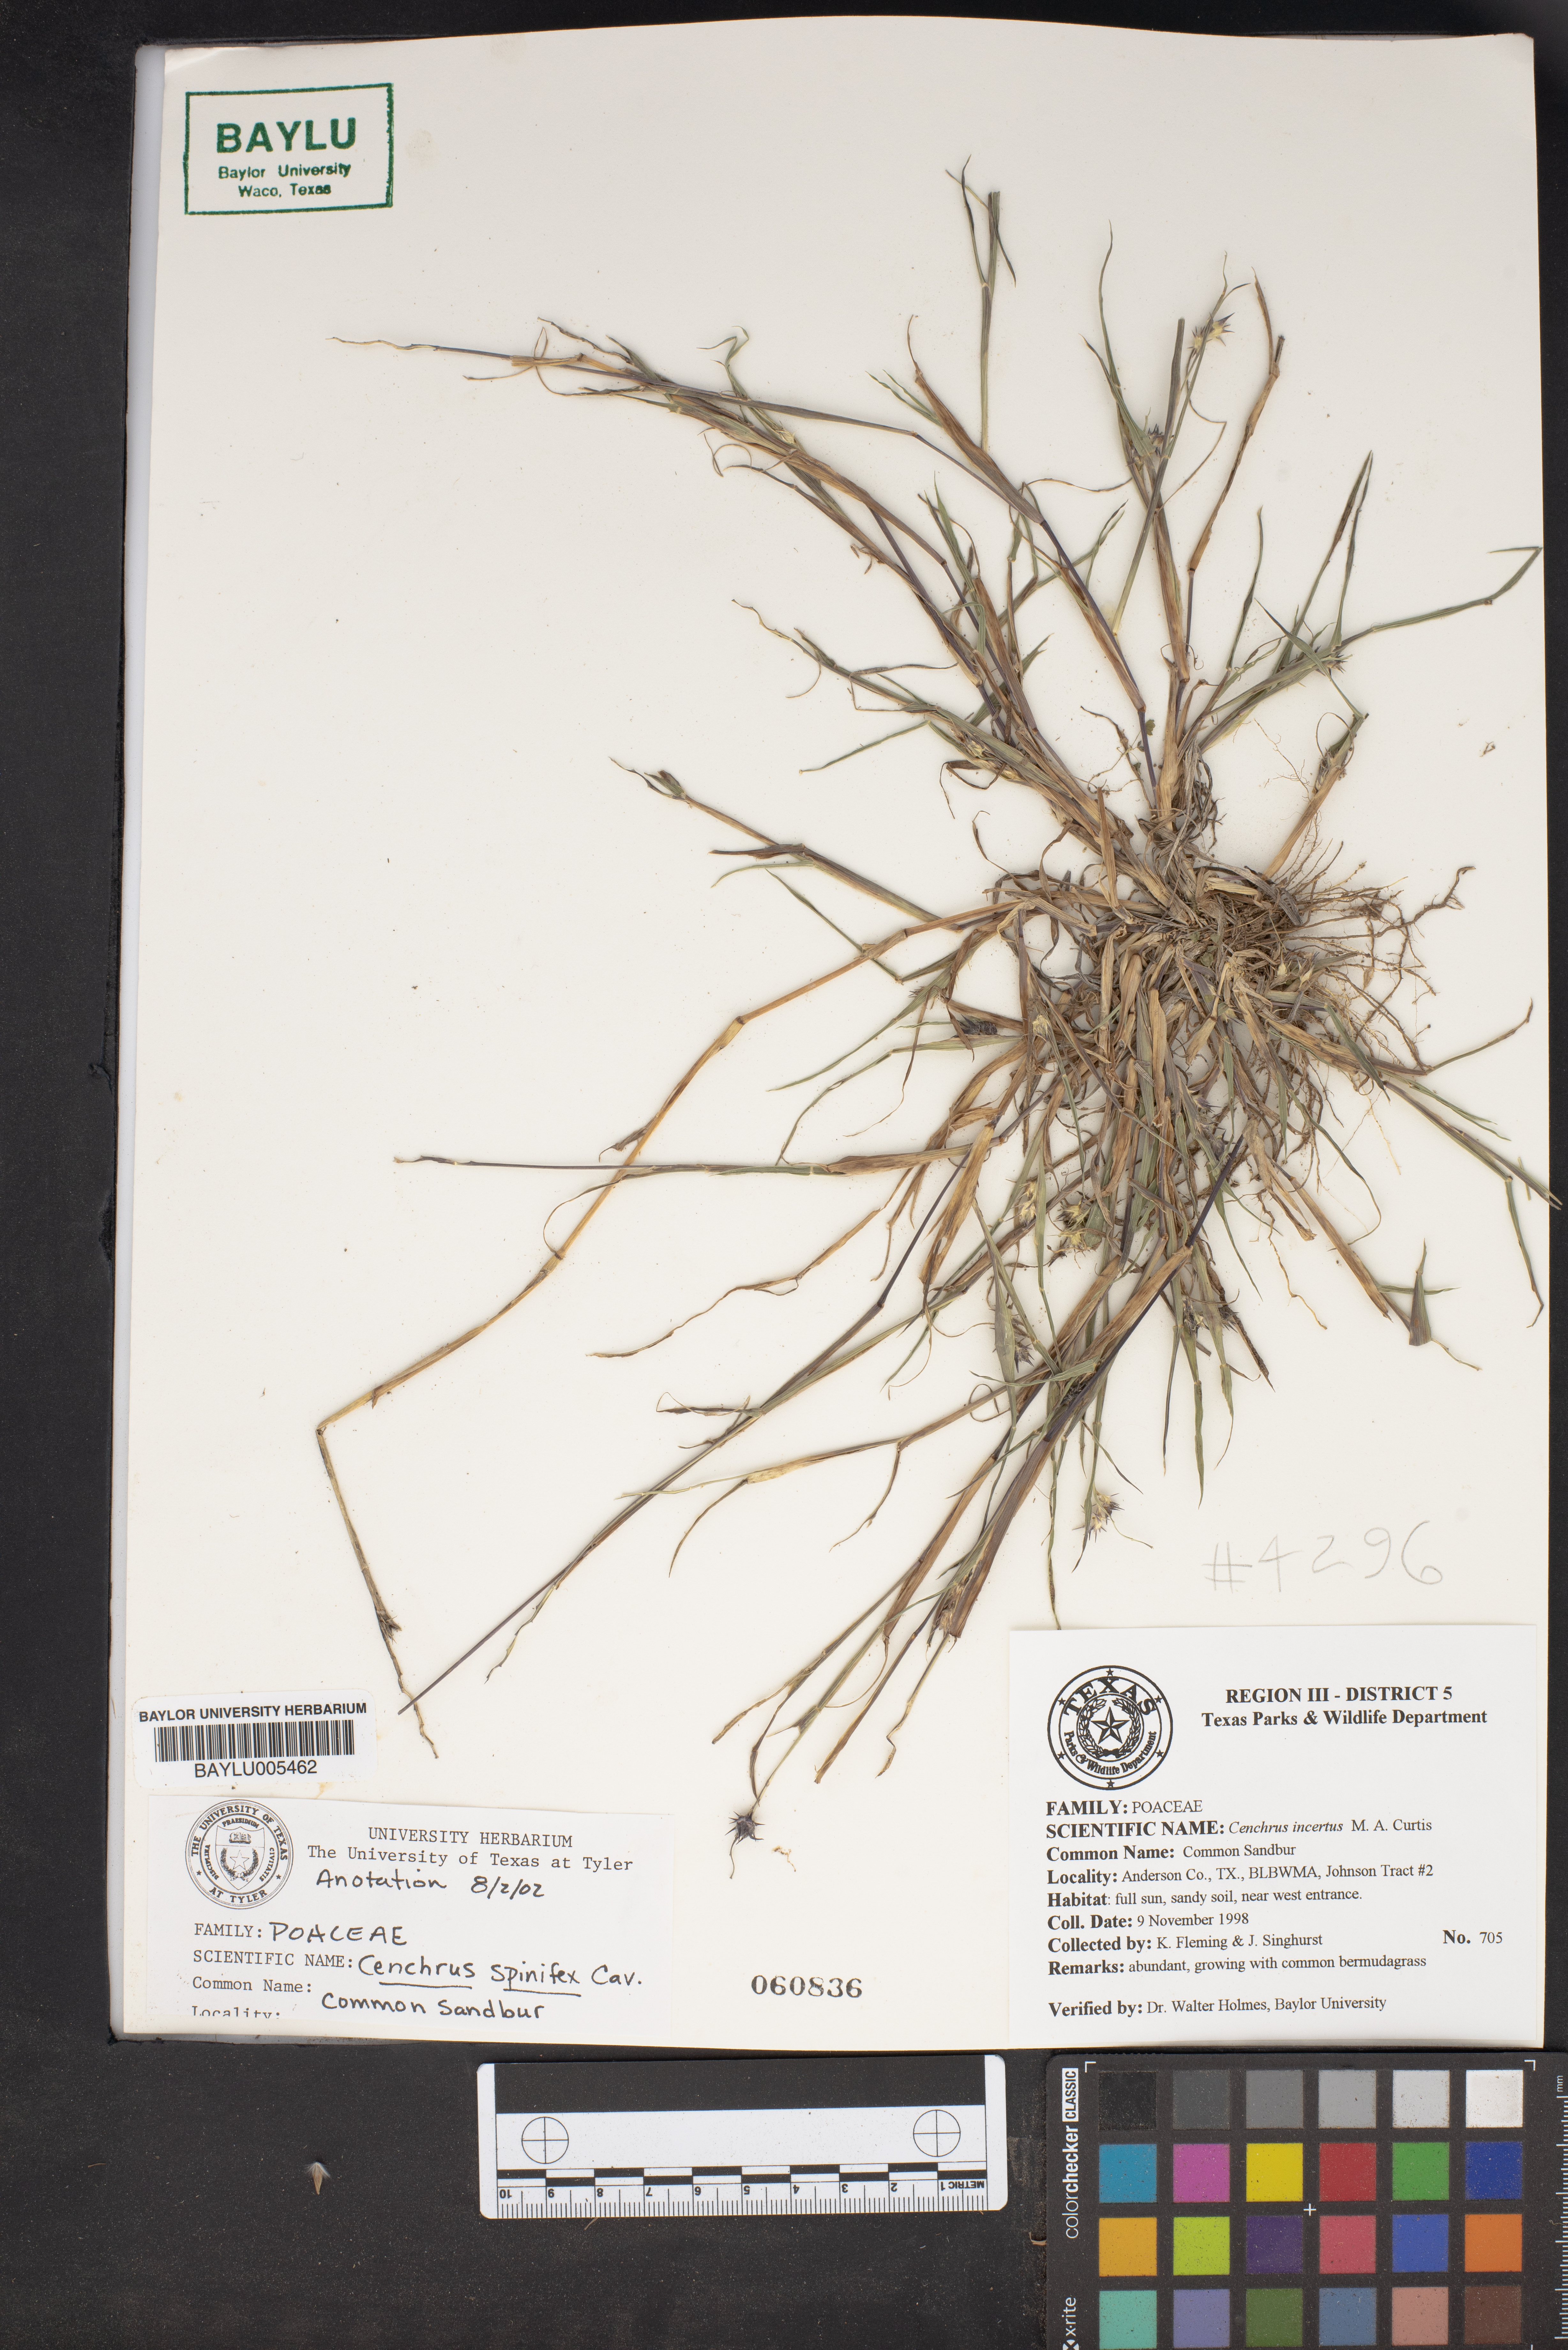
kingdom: Plantae
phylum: Tracheophyta
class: Liliopsida
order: Poales
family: Poaceae
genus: Cenchrus
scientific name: Cenchrus spinifex
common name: Coast sandbur
